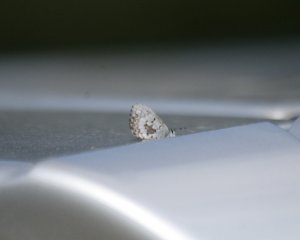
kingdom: Animalia
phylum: Arthropoda
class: Insecta
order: Lepidoptera
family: Lycaenidae
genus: Celastrina
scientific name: Celastrina serotina
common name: Cherry Gall Azure
